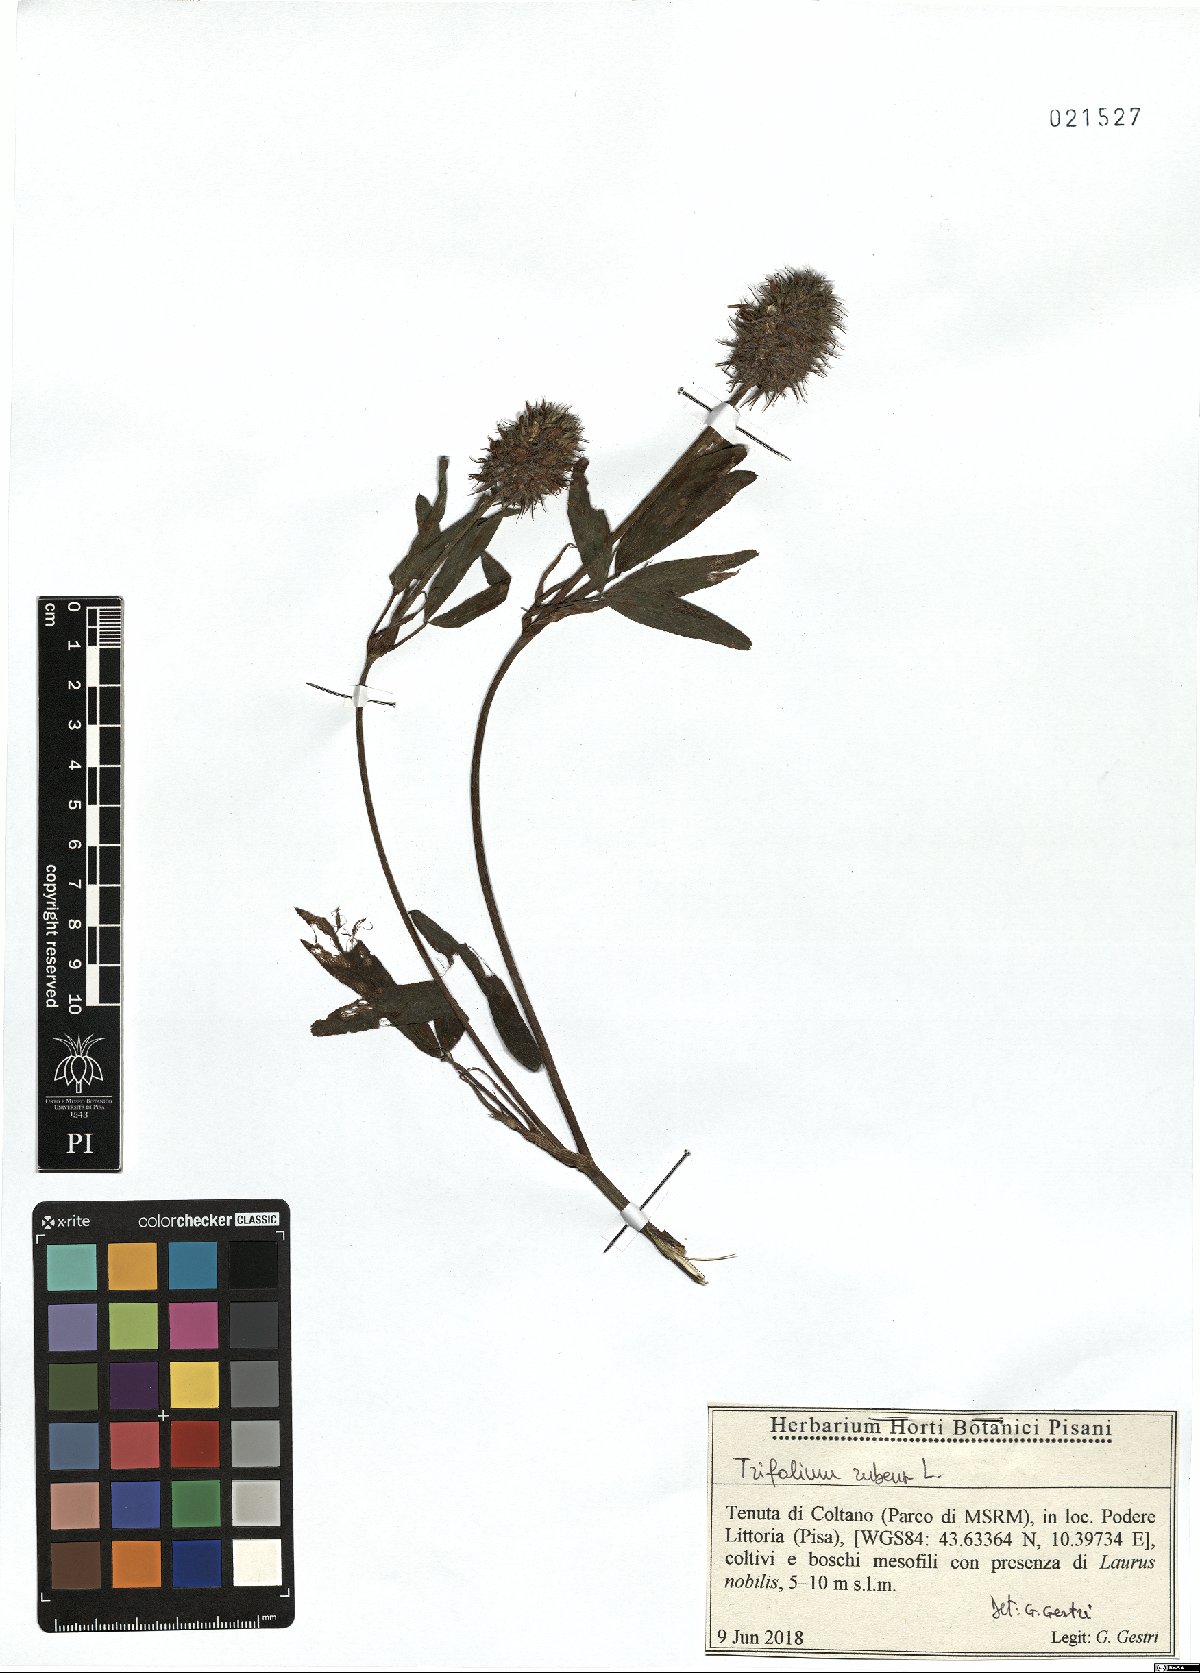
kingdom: Plantae
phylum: Tracheophyta
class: Magnoliopsida
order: Fabales
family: Fabaceae
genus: Trifolium
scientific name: Trifolium rubens
